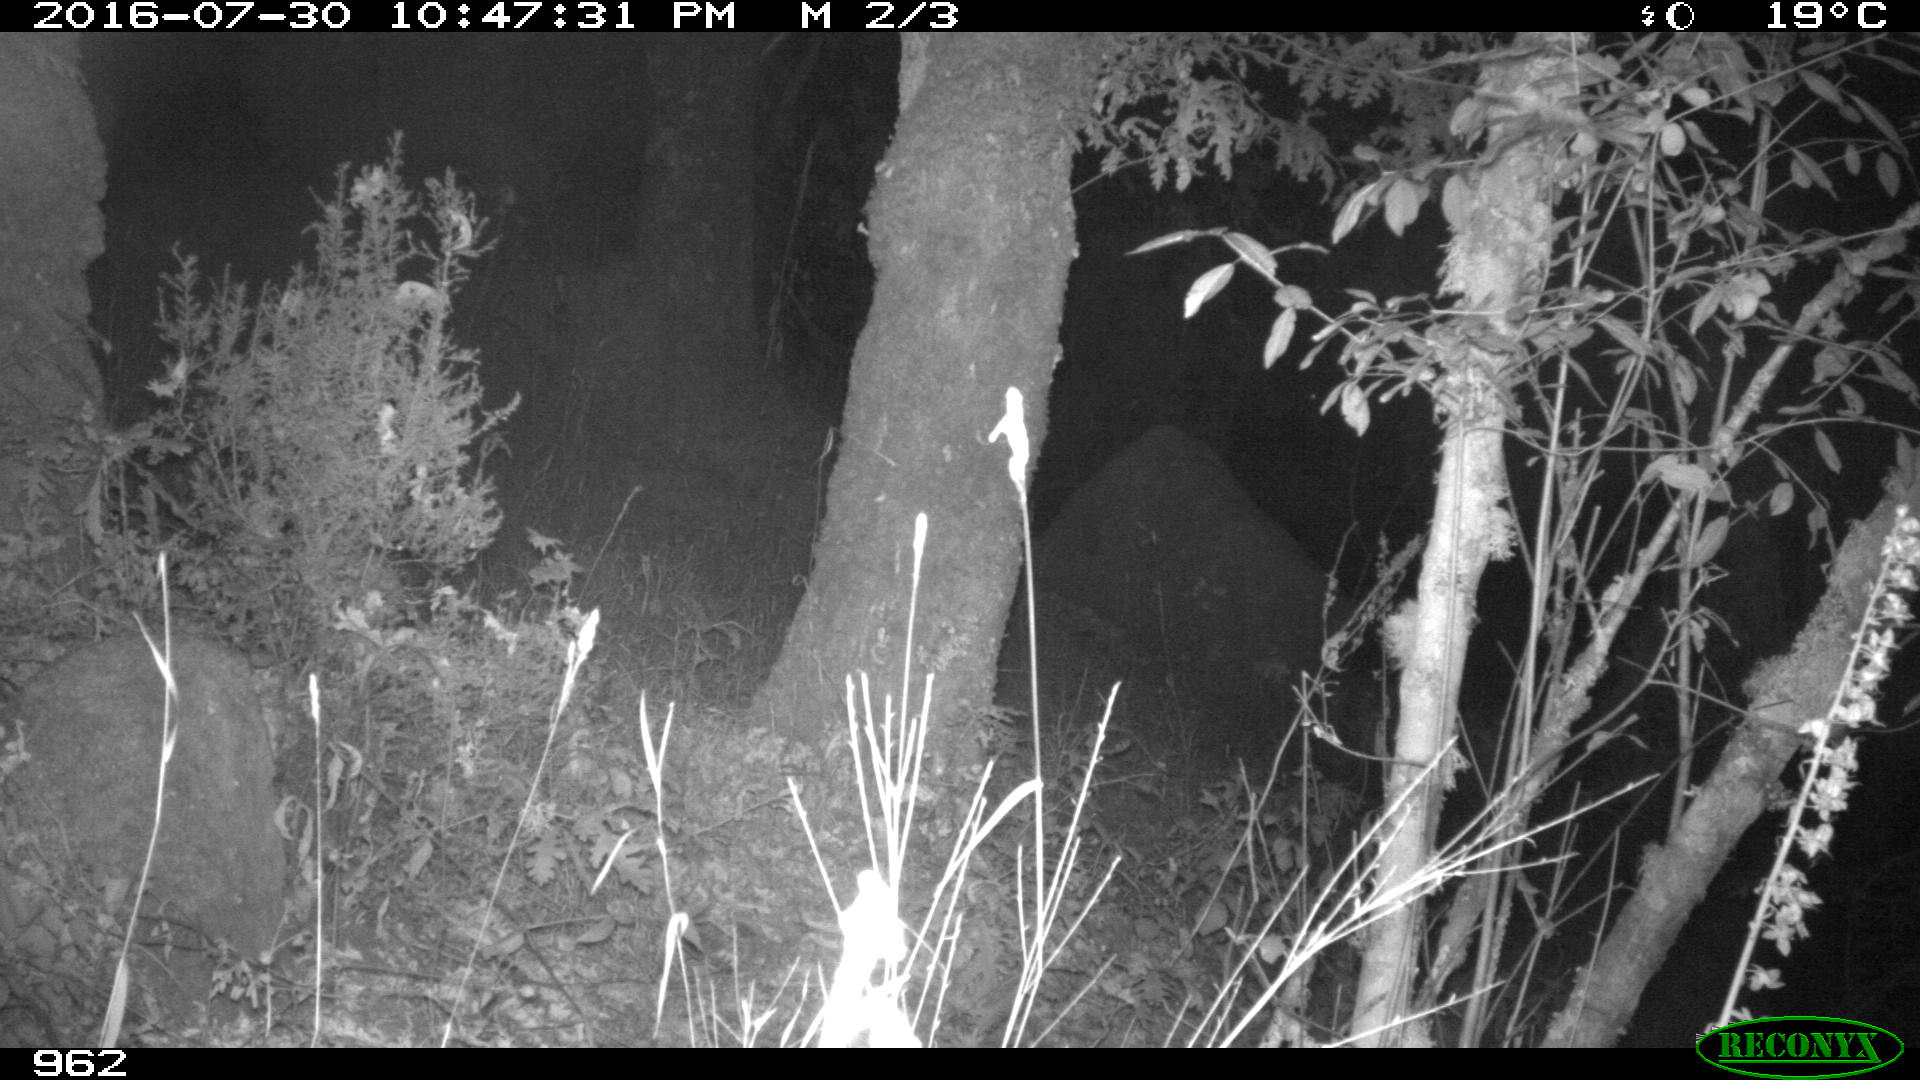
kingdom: Animalia
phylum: Chordata
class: Mammalia
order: Artiodactyla
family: Suidae
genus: Sus
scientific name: Sus scrofa
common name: Wild boar
